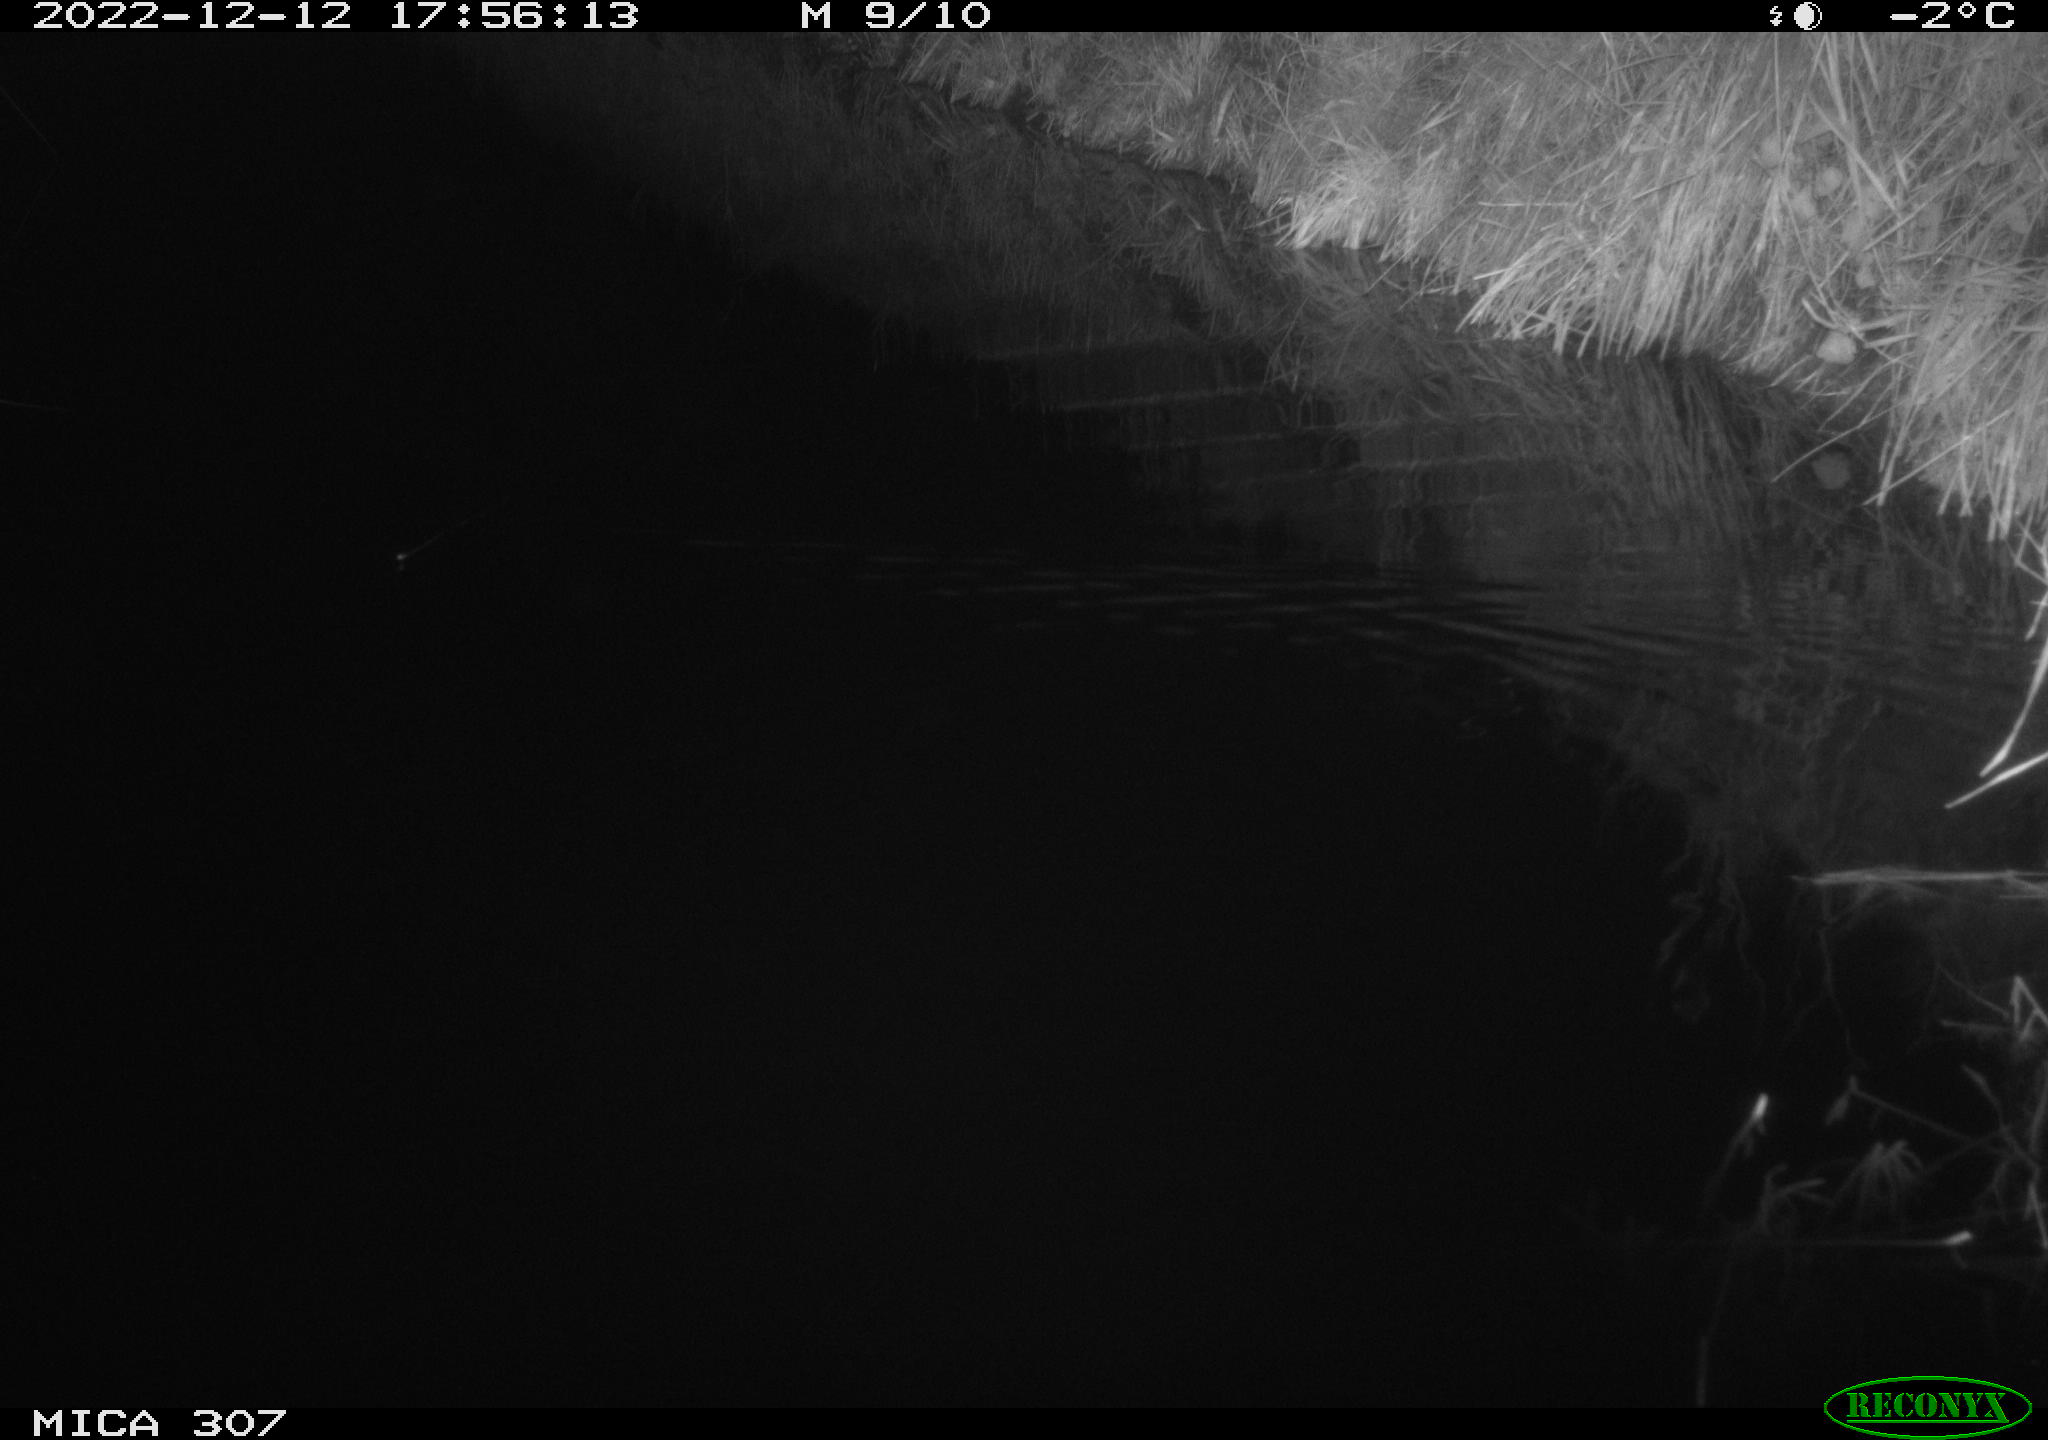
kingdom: Animalia
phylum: Chordata
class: Mammalia
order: Rodentia
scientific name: Rodentia
